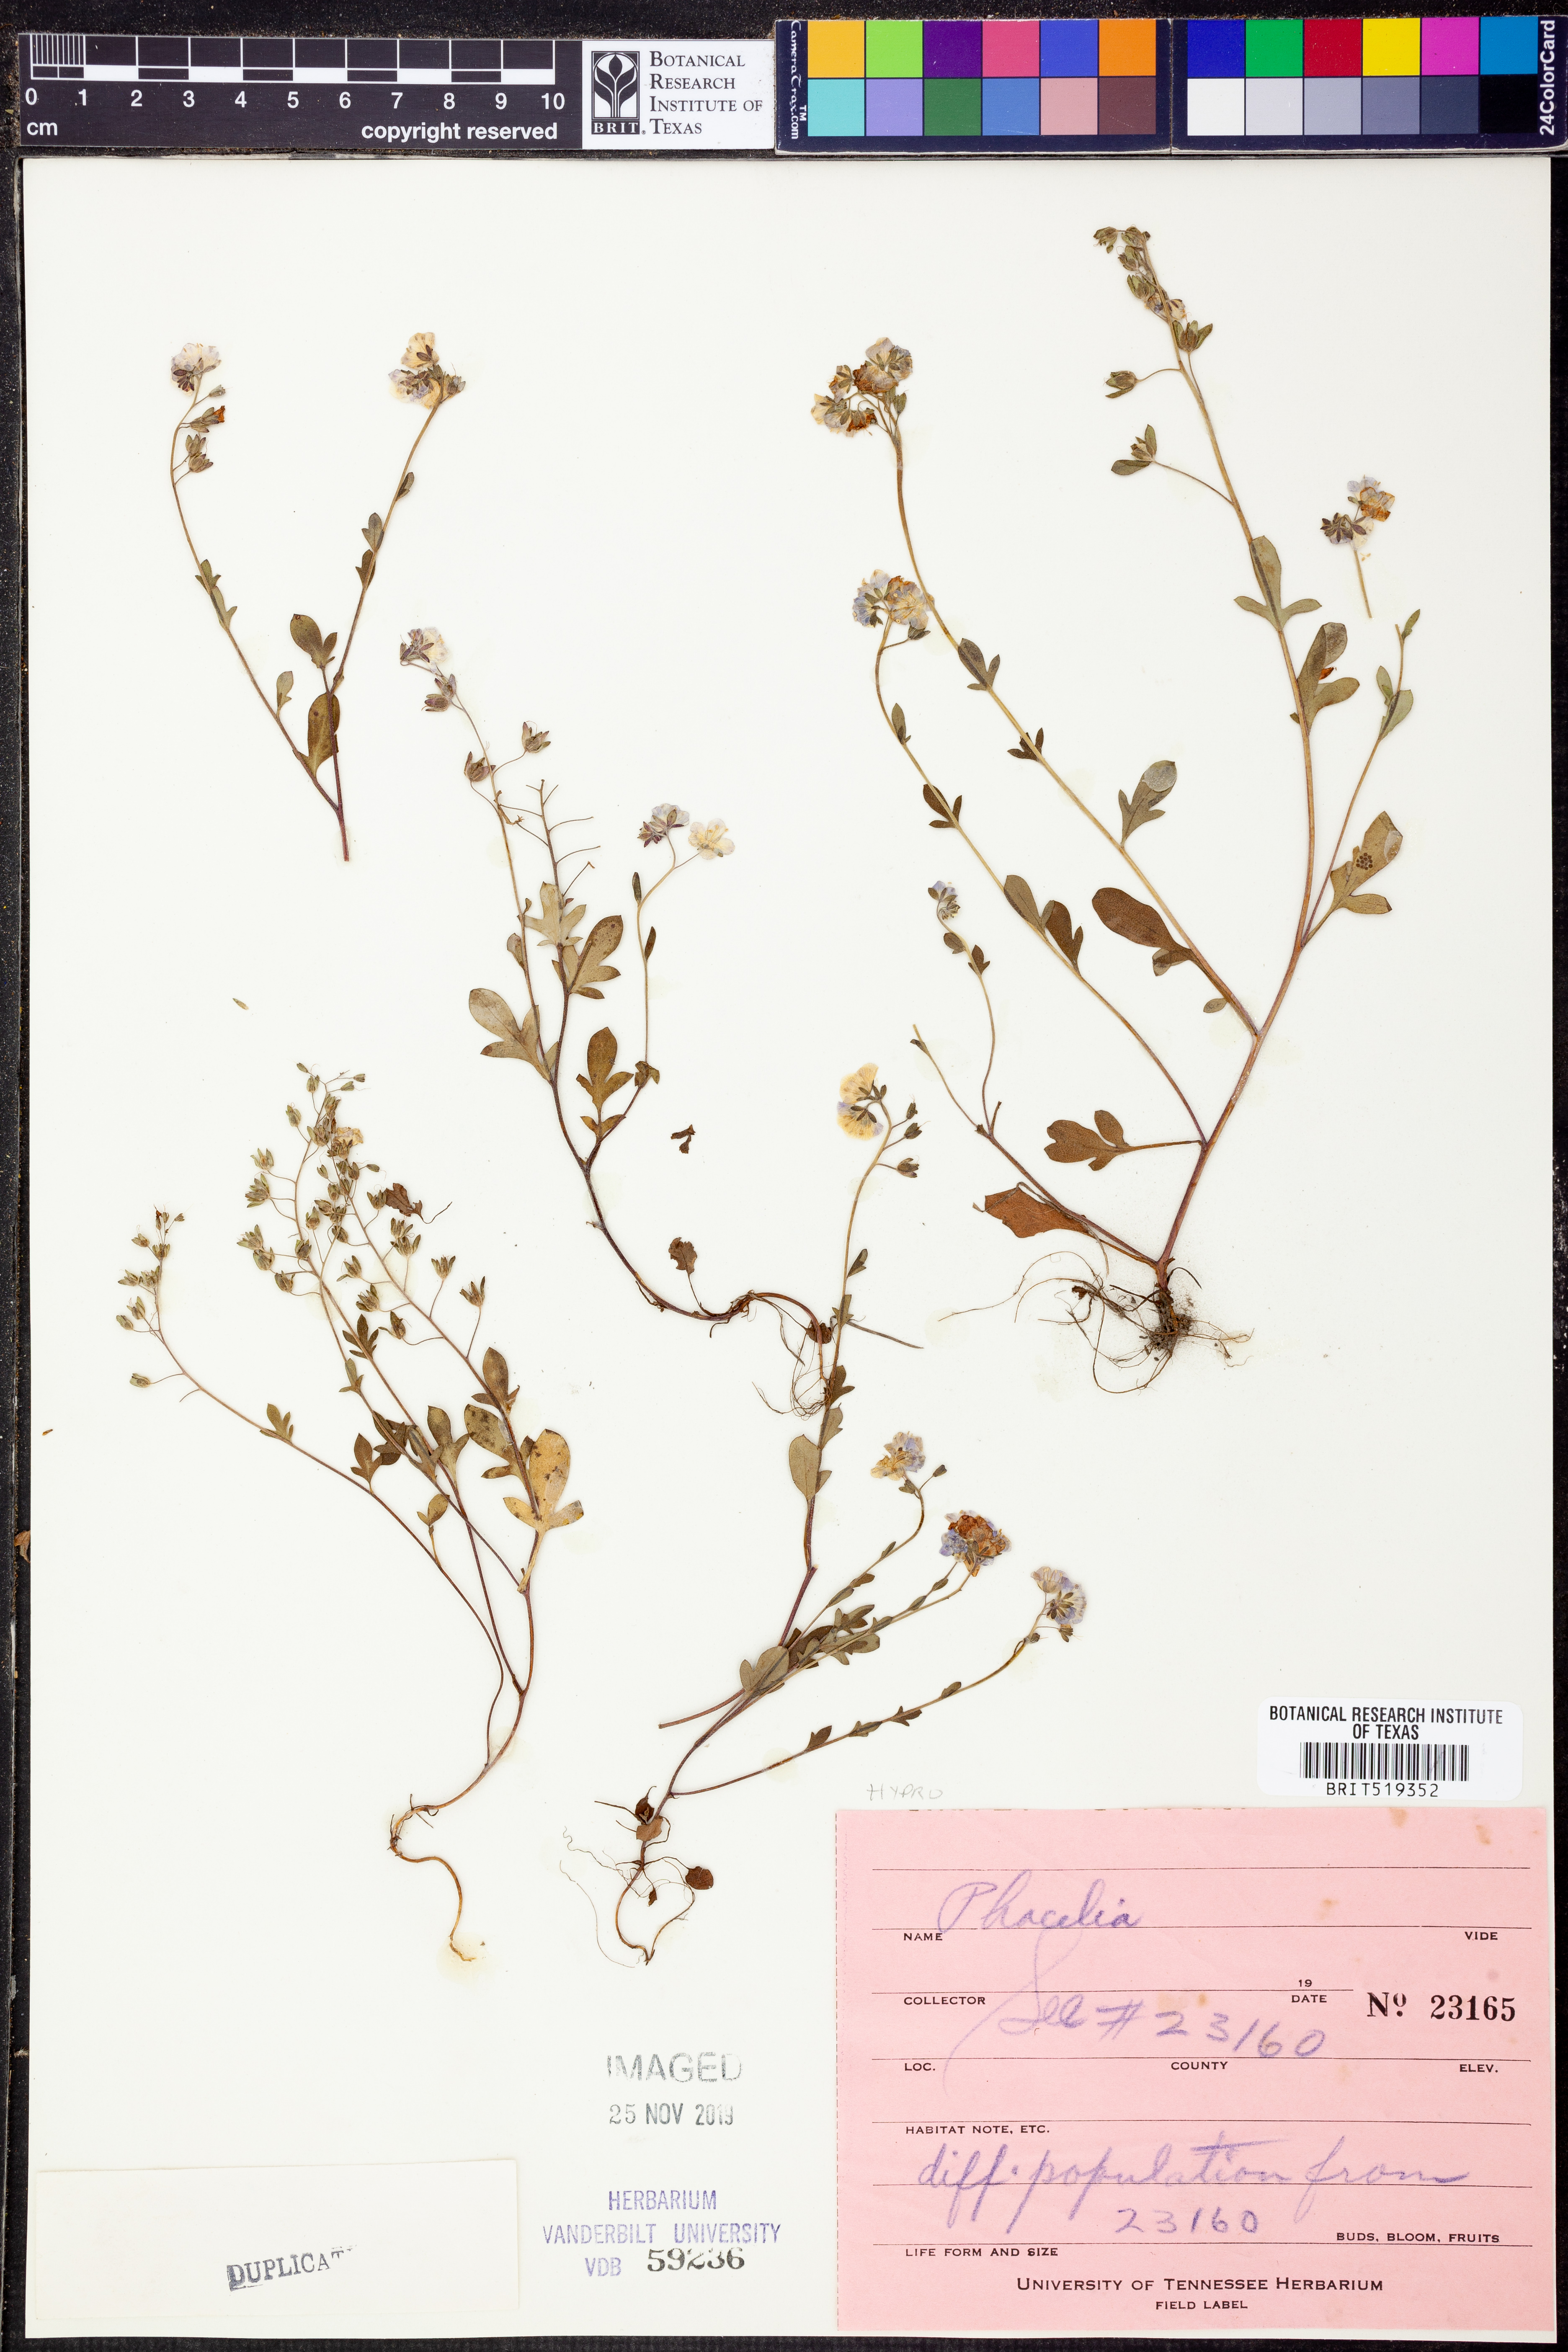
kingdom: Plantae
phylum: Tracheophyta
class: Magnoliopsida
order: Boraginales
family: Hydrophyllaceae
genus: Phacelia
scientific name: Phacelia
